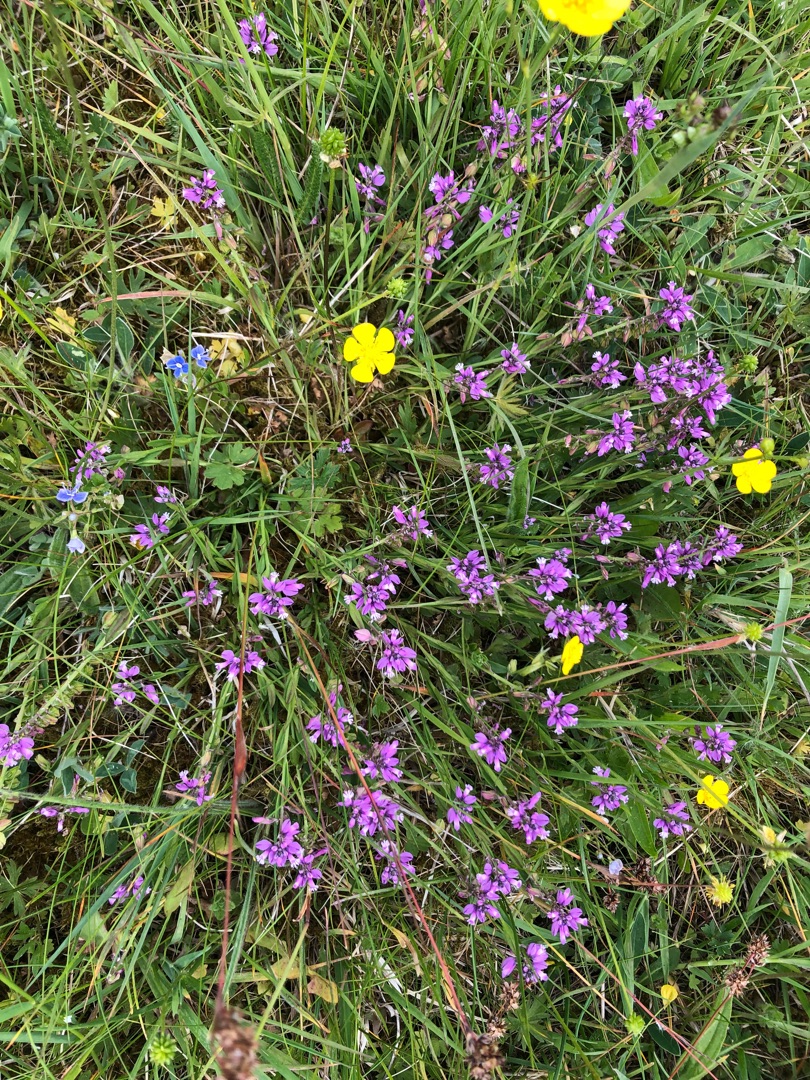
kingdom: Plantae
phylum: Tracheophyta
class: Magnoliopsida
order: Fabales
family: Polygalaceae
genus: Polygala
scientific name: Polygala vulgaris
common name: Almindelig mælkeurt
